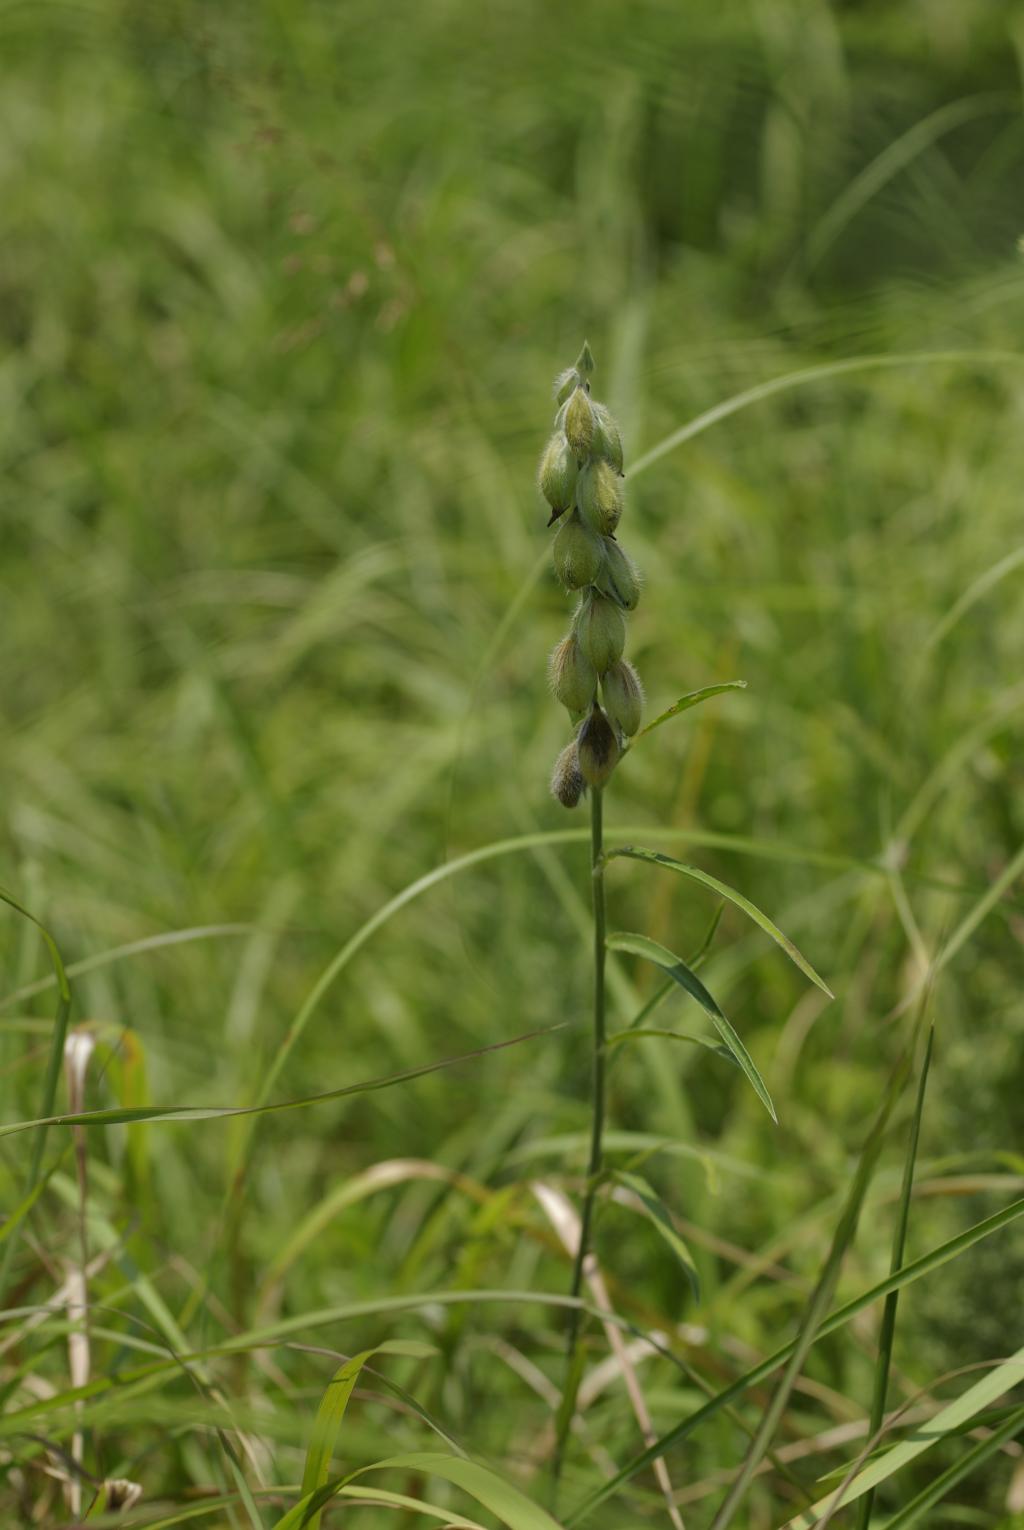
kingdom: Plantae
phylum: Tracheophyta
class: Magnoliopsida
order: Fabales
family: Fabaceae
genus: Crotalaria
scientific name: Crotalaria sessiliflora
